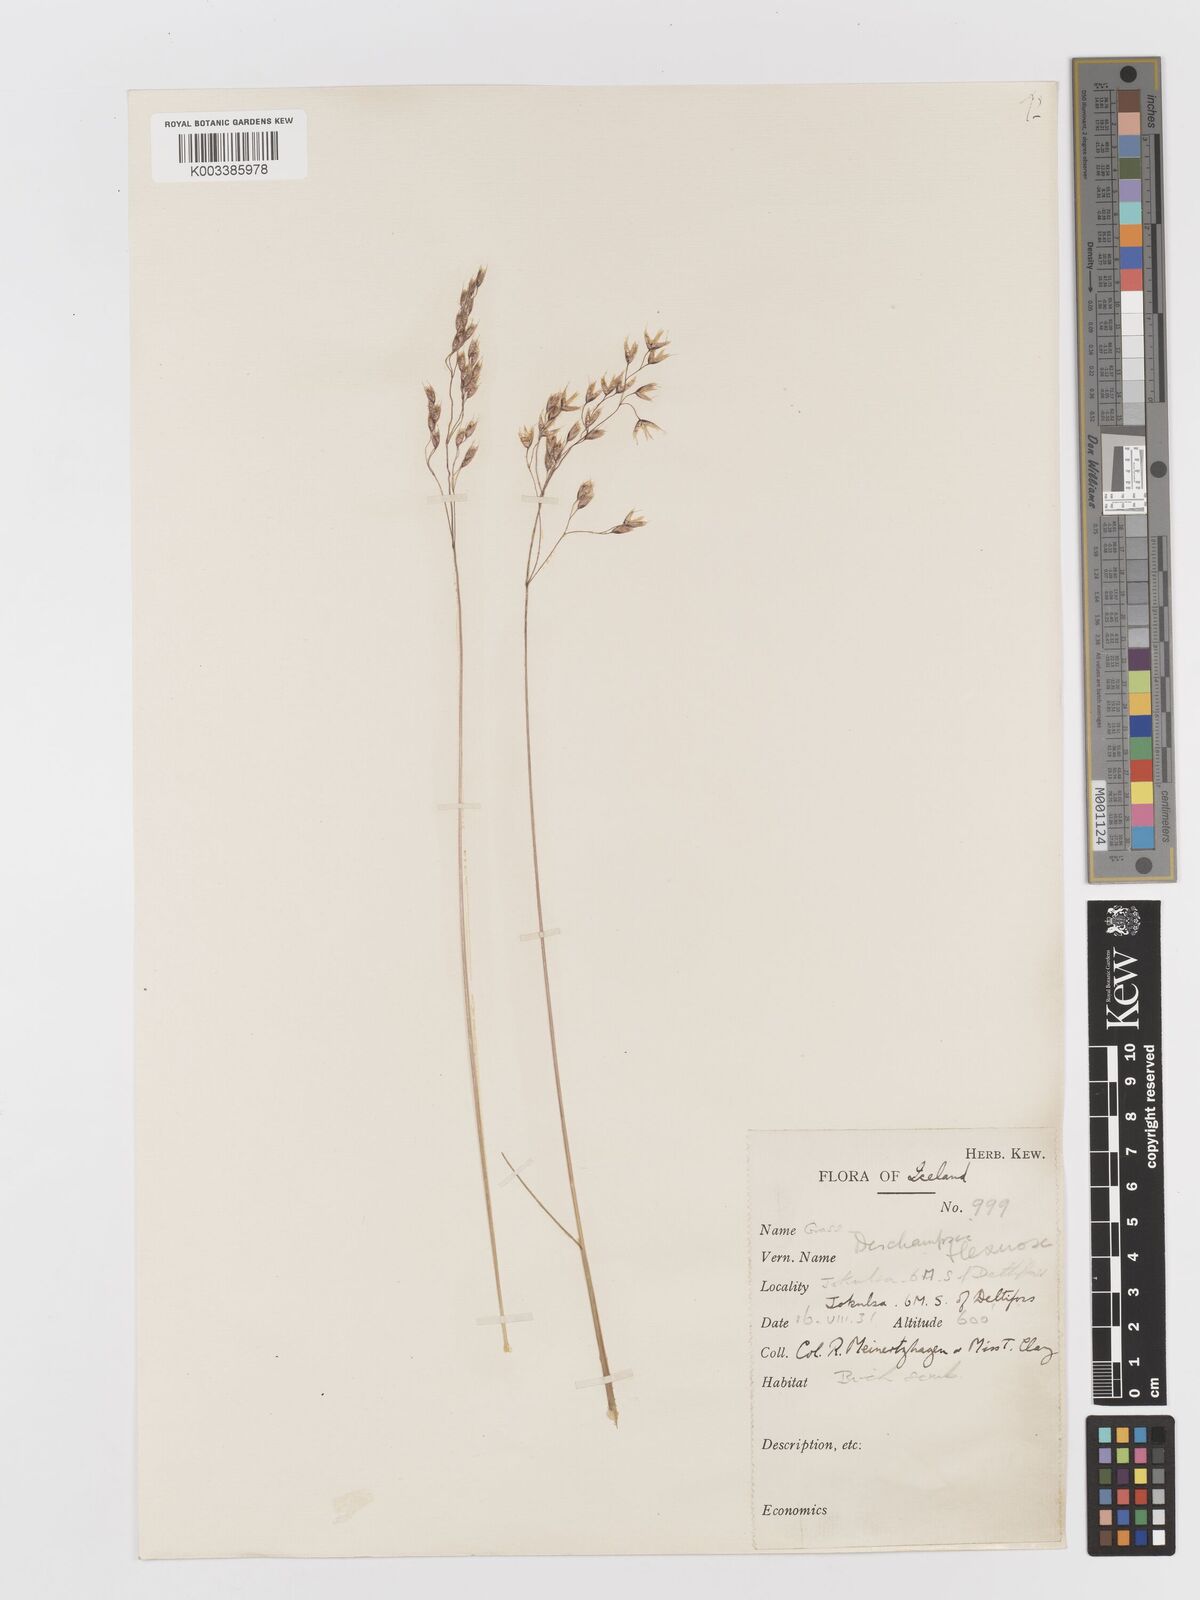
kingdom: Plantae
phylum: Tracheophyta
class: Liliopsida
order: Poales
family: Poaceae
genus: Avenella
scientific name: Avenella flexuosa
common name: Wavy hairgrass
